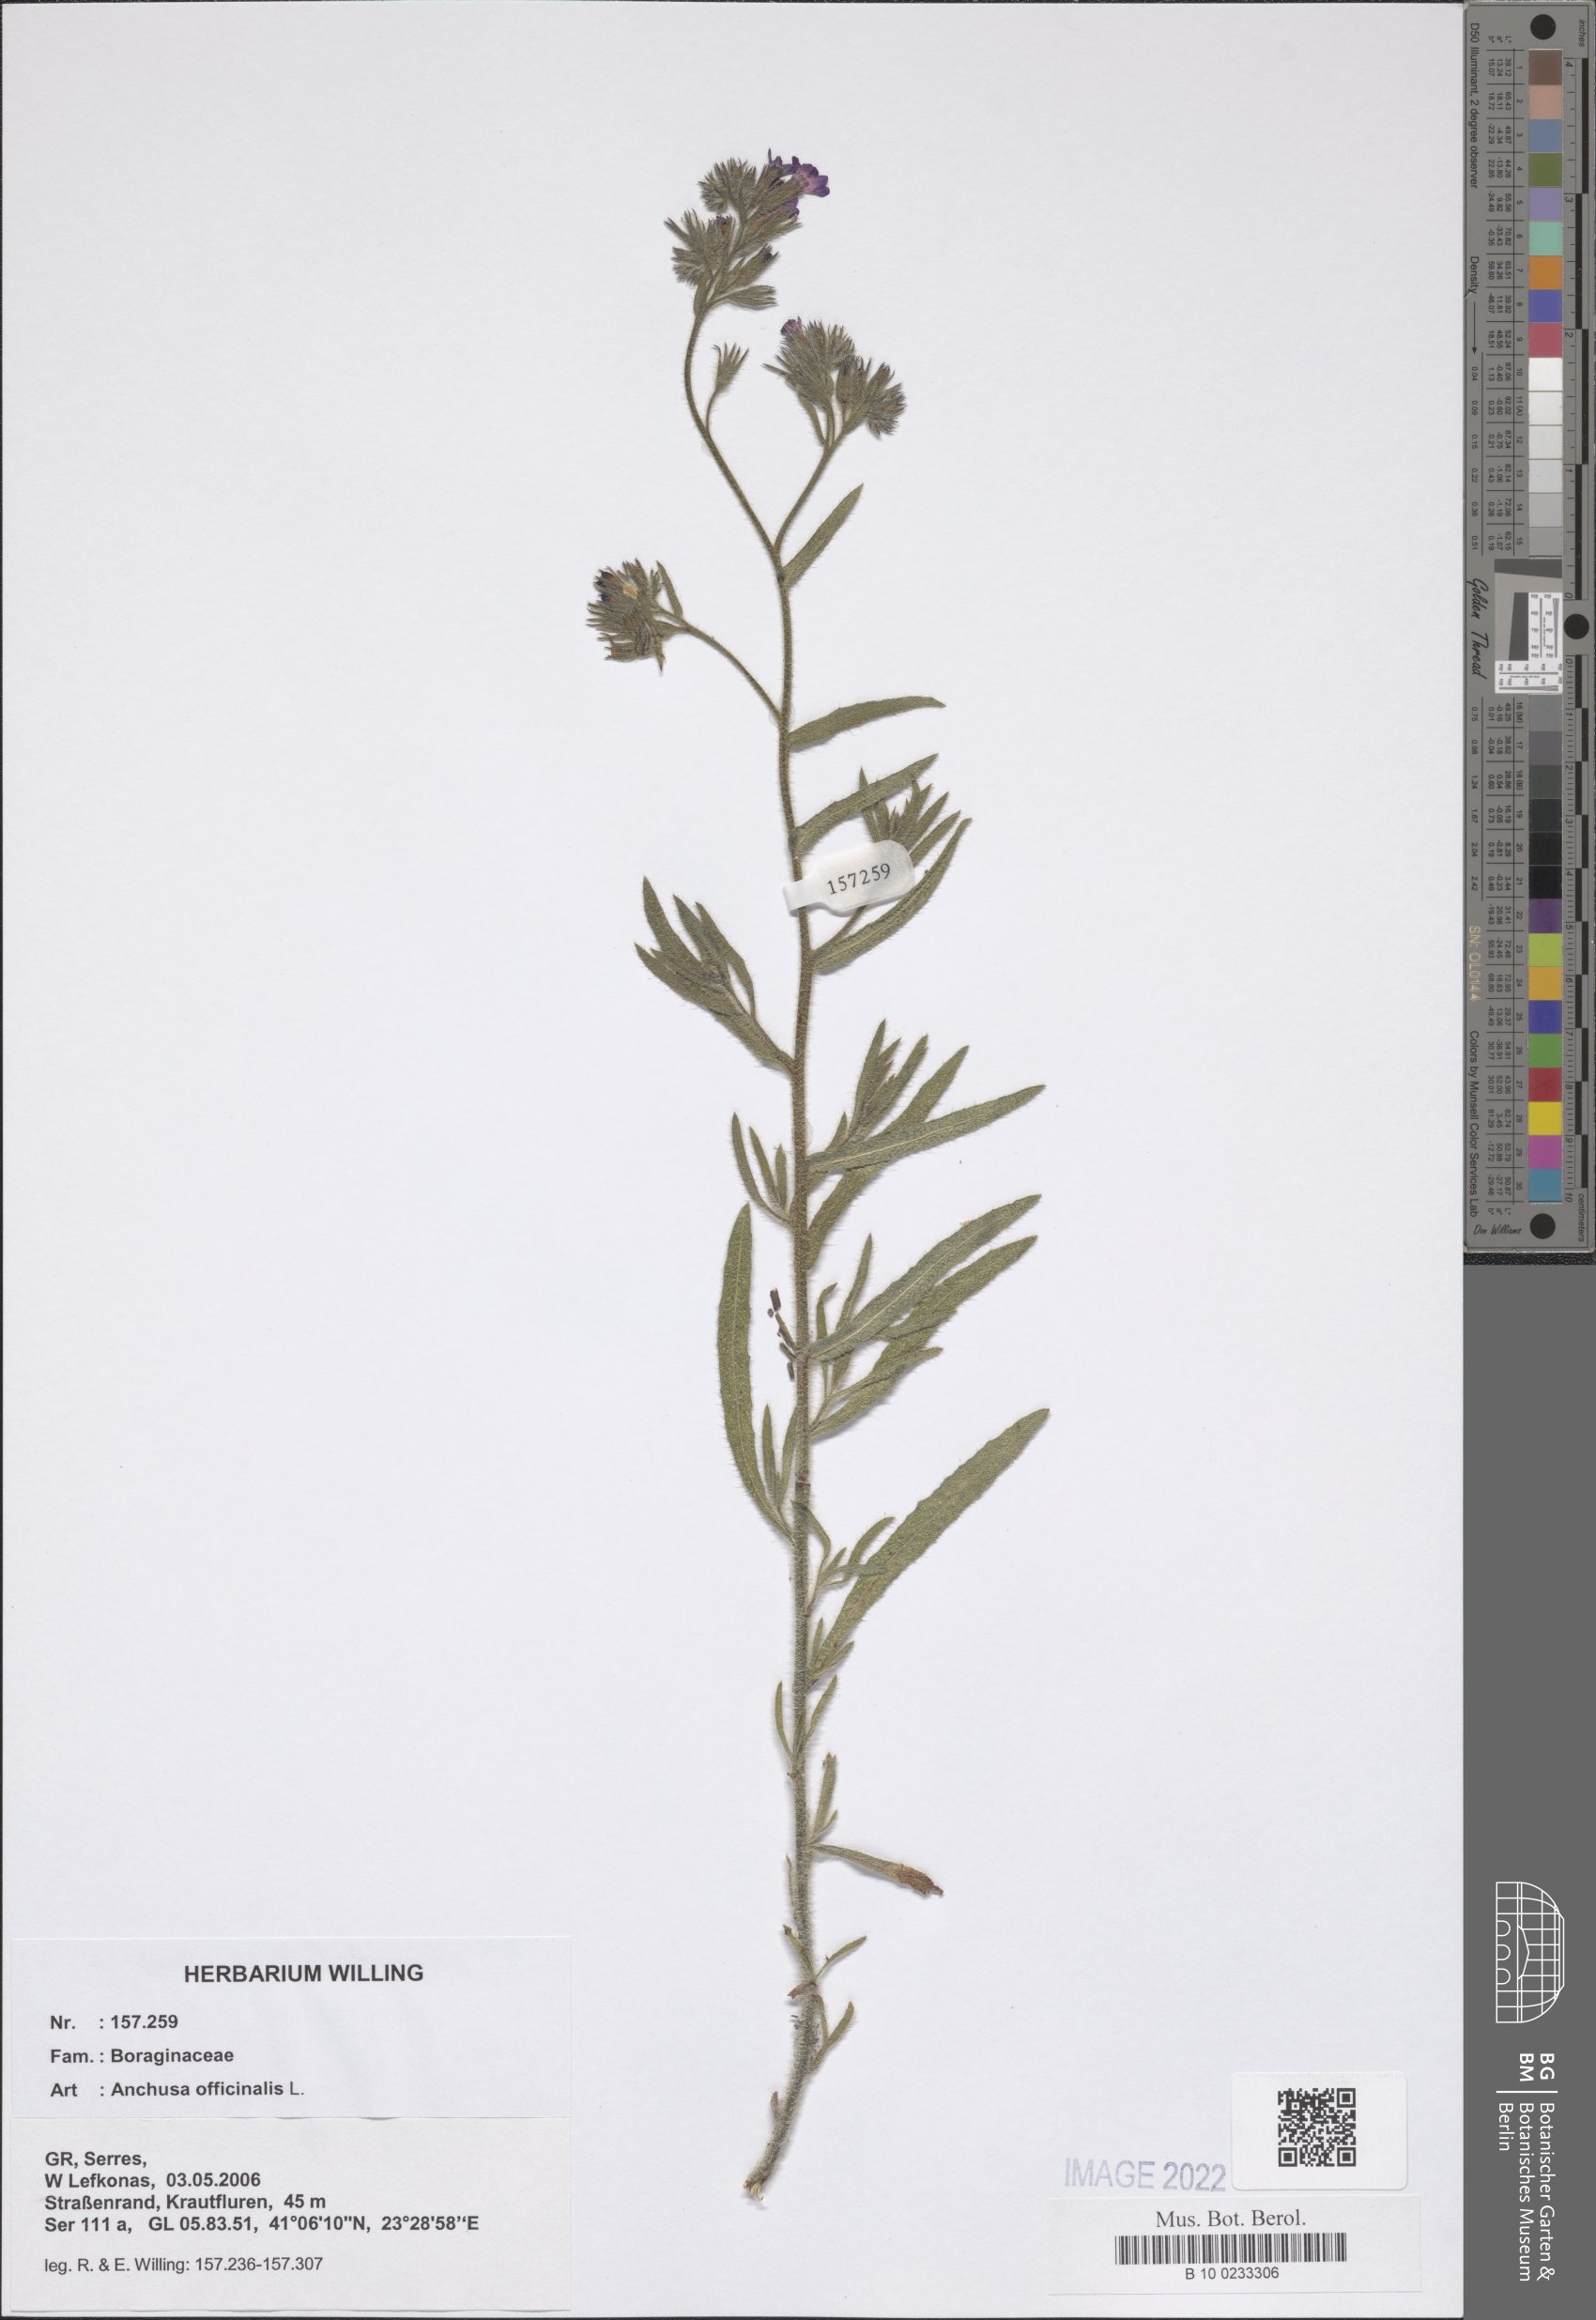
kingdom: Plantae
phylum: Tracheophyta
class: Magnoliopsida
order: Boraginales
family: Boraginaceae
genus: Anchusa
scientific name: Anchusa officinalis
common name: Alkanet
